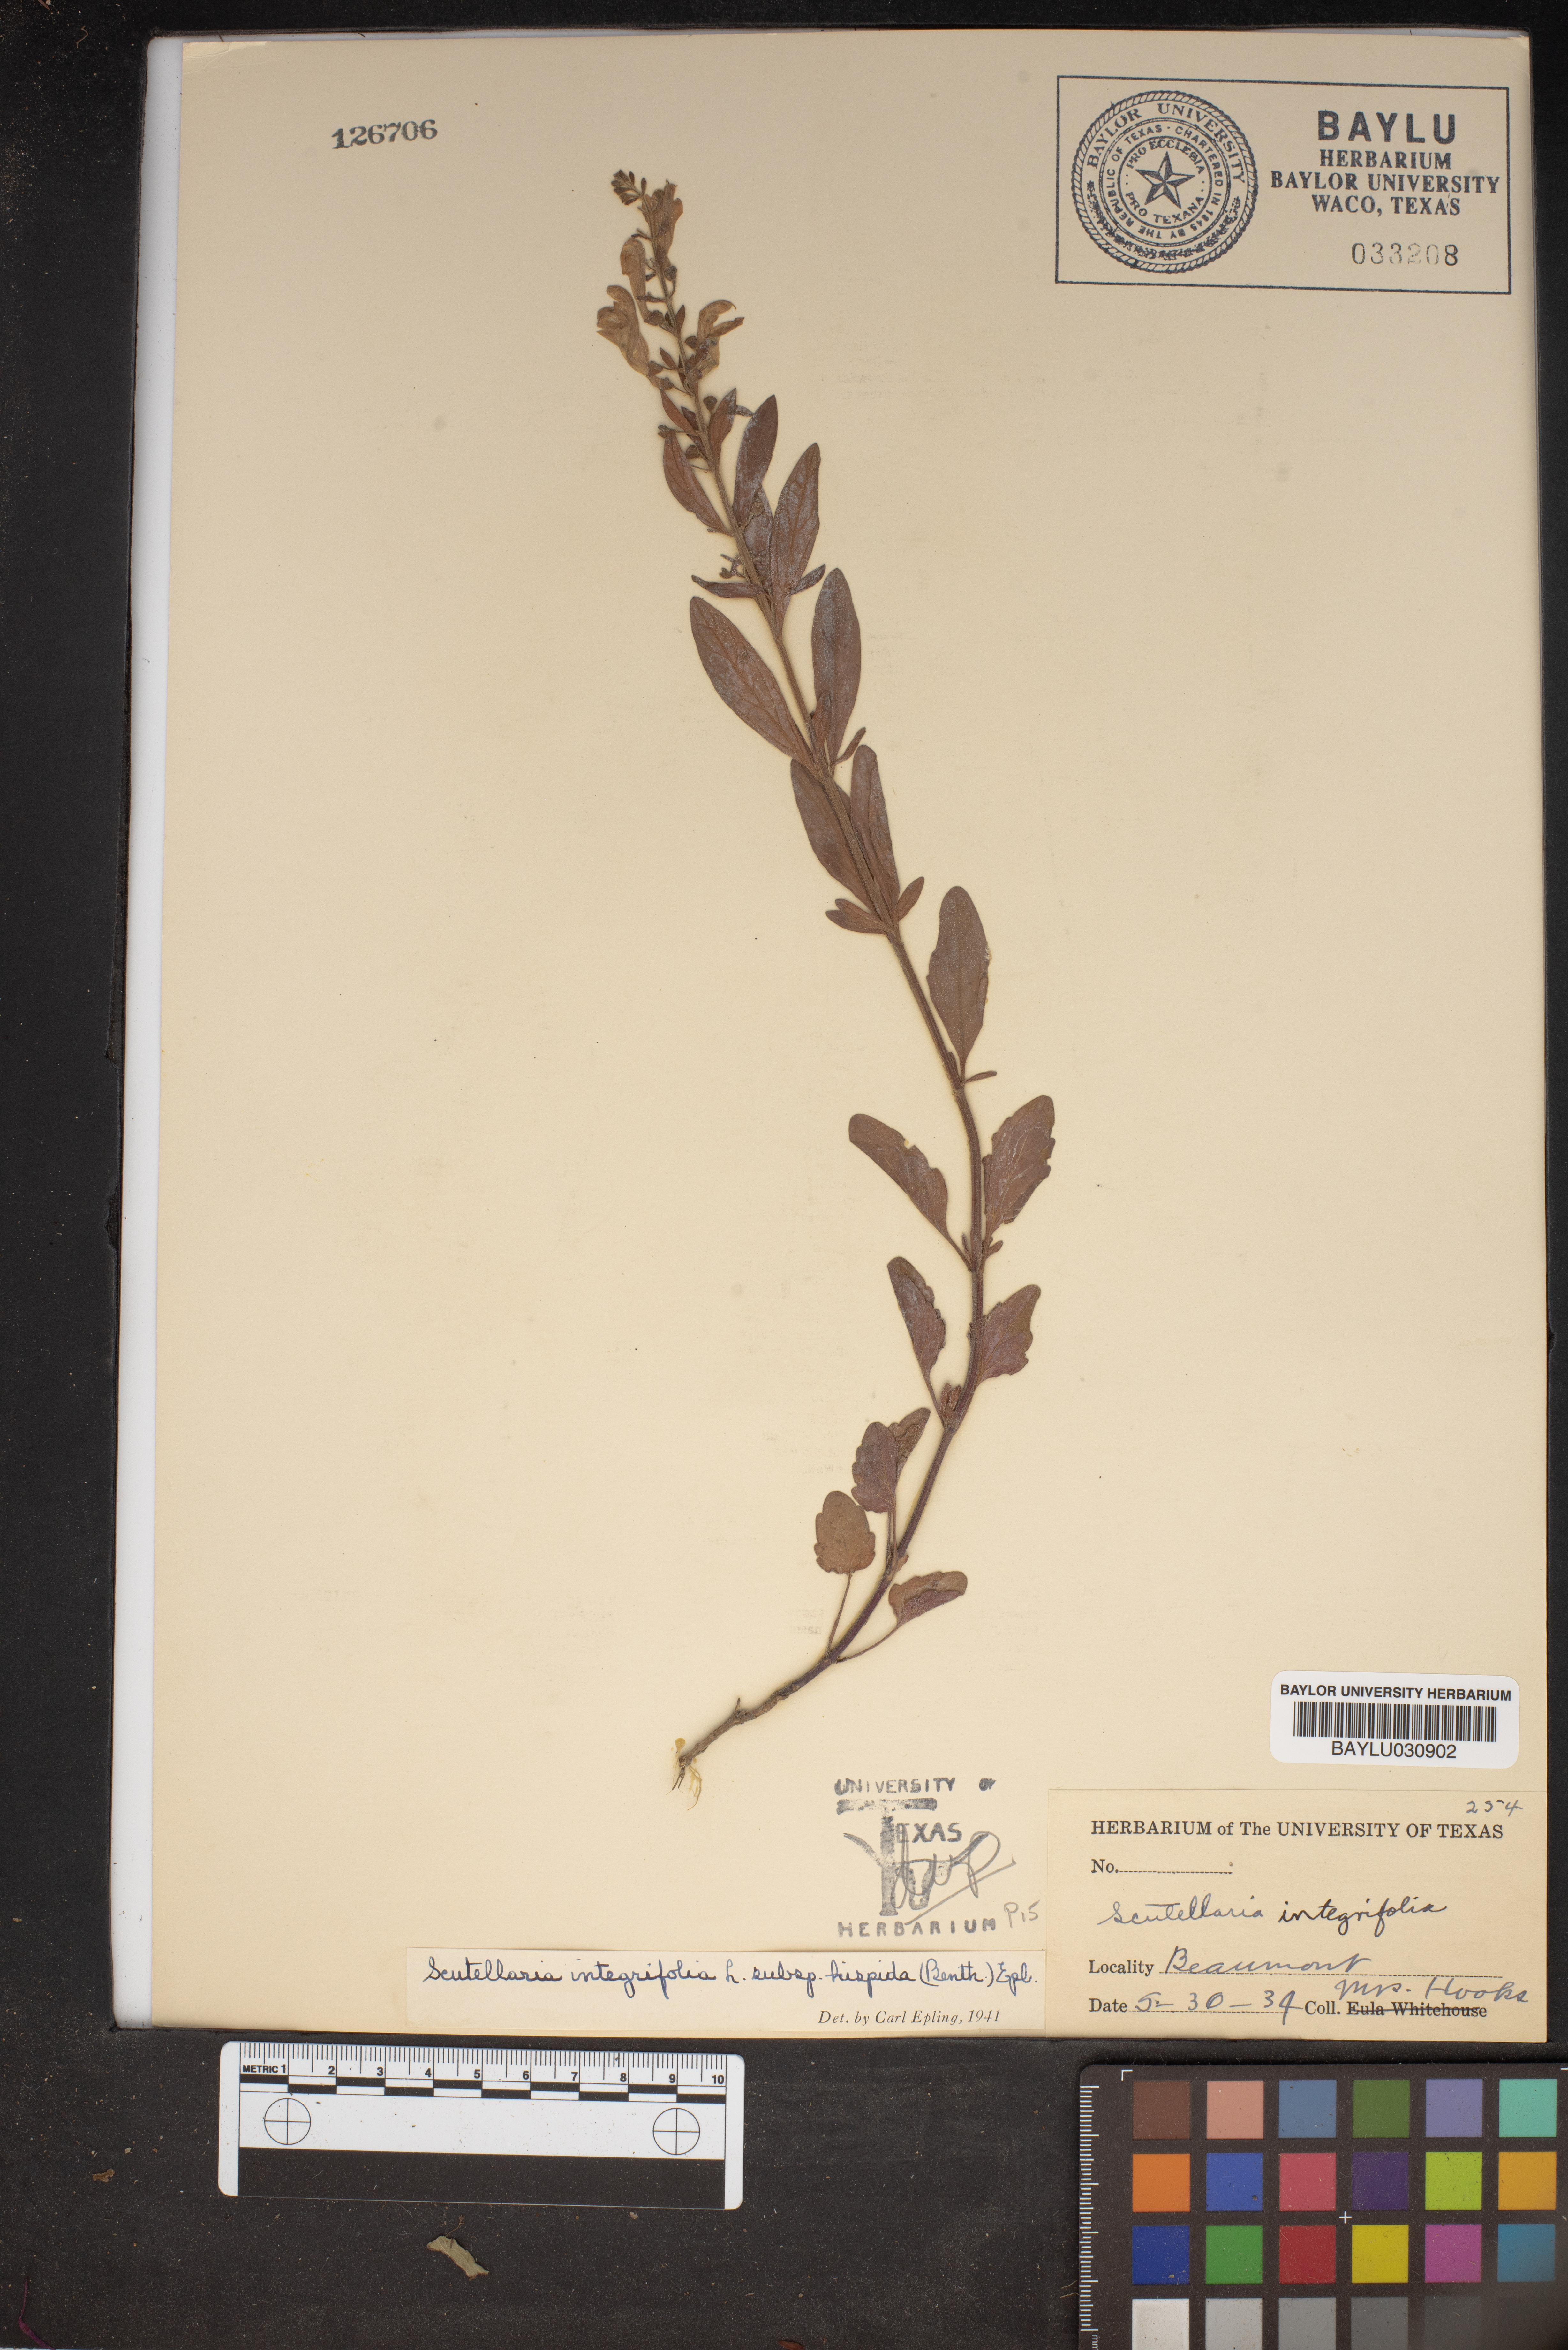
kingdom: Plantae
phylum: Tracheophyta
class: Magnoliopsida
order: Lamiales
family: Lamiaceae
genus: Scutellaria
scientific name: Scutellaria integrifolia
